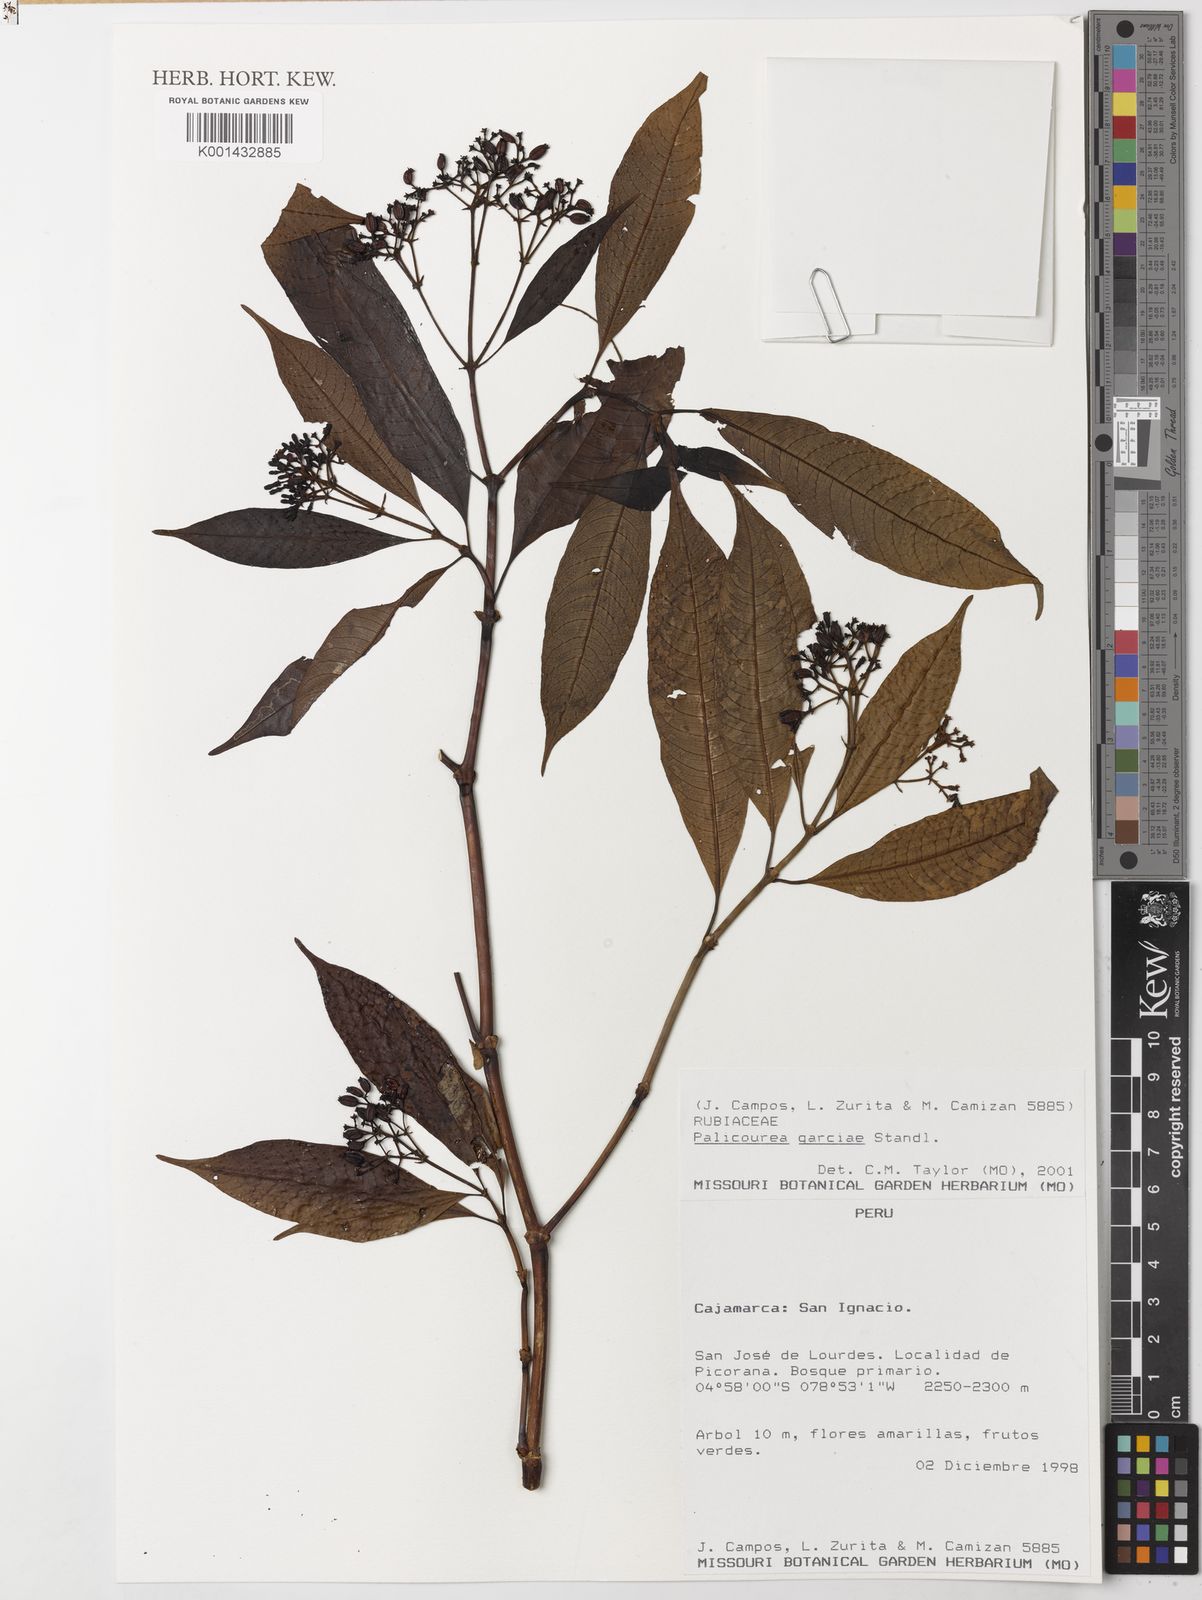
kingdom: Plantae
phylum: Tracheophyta
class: Magnoliopsida
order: Gentianales
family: Rubiaceae
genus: Palicourea
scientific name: Palicourea garciae
